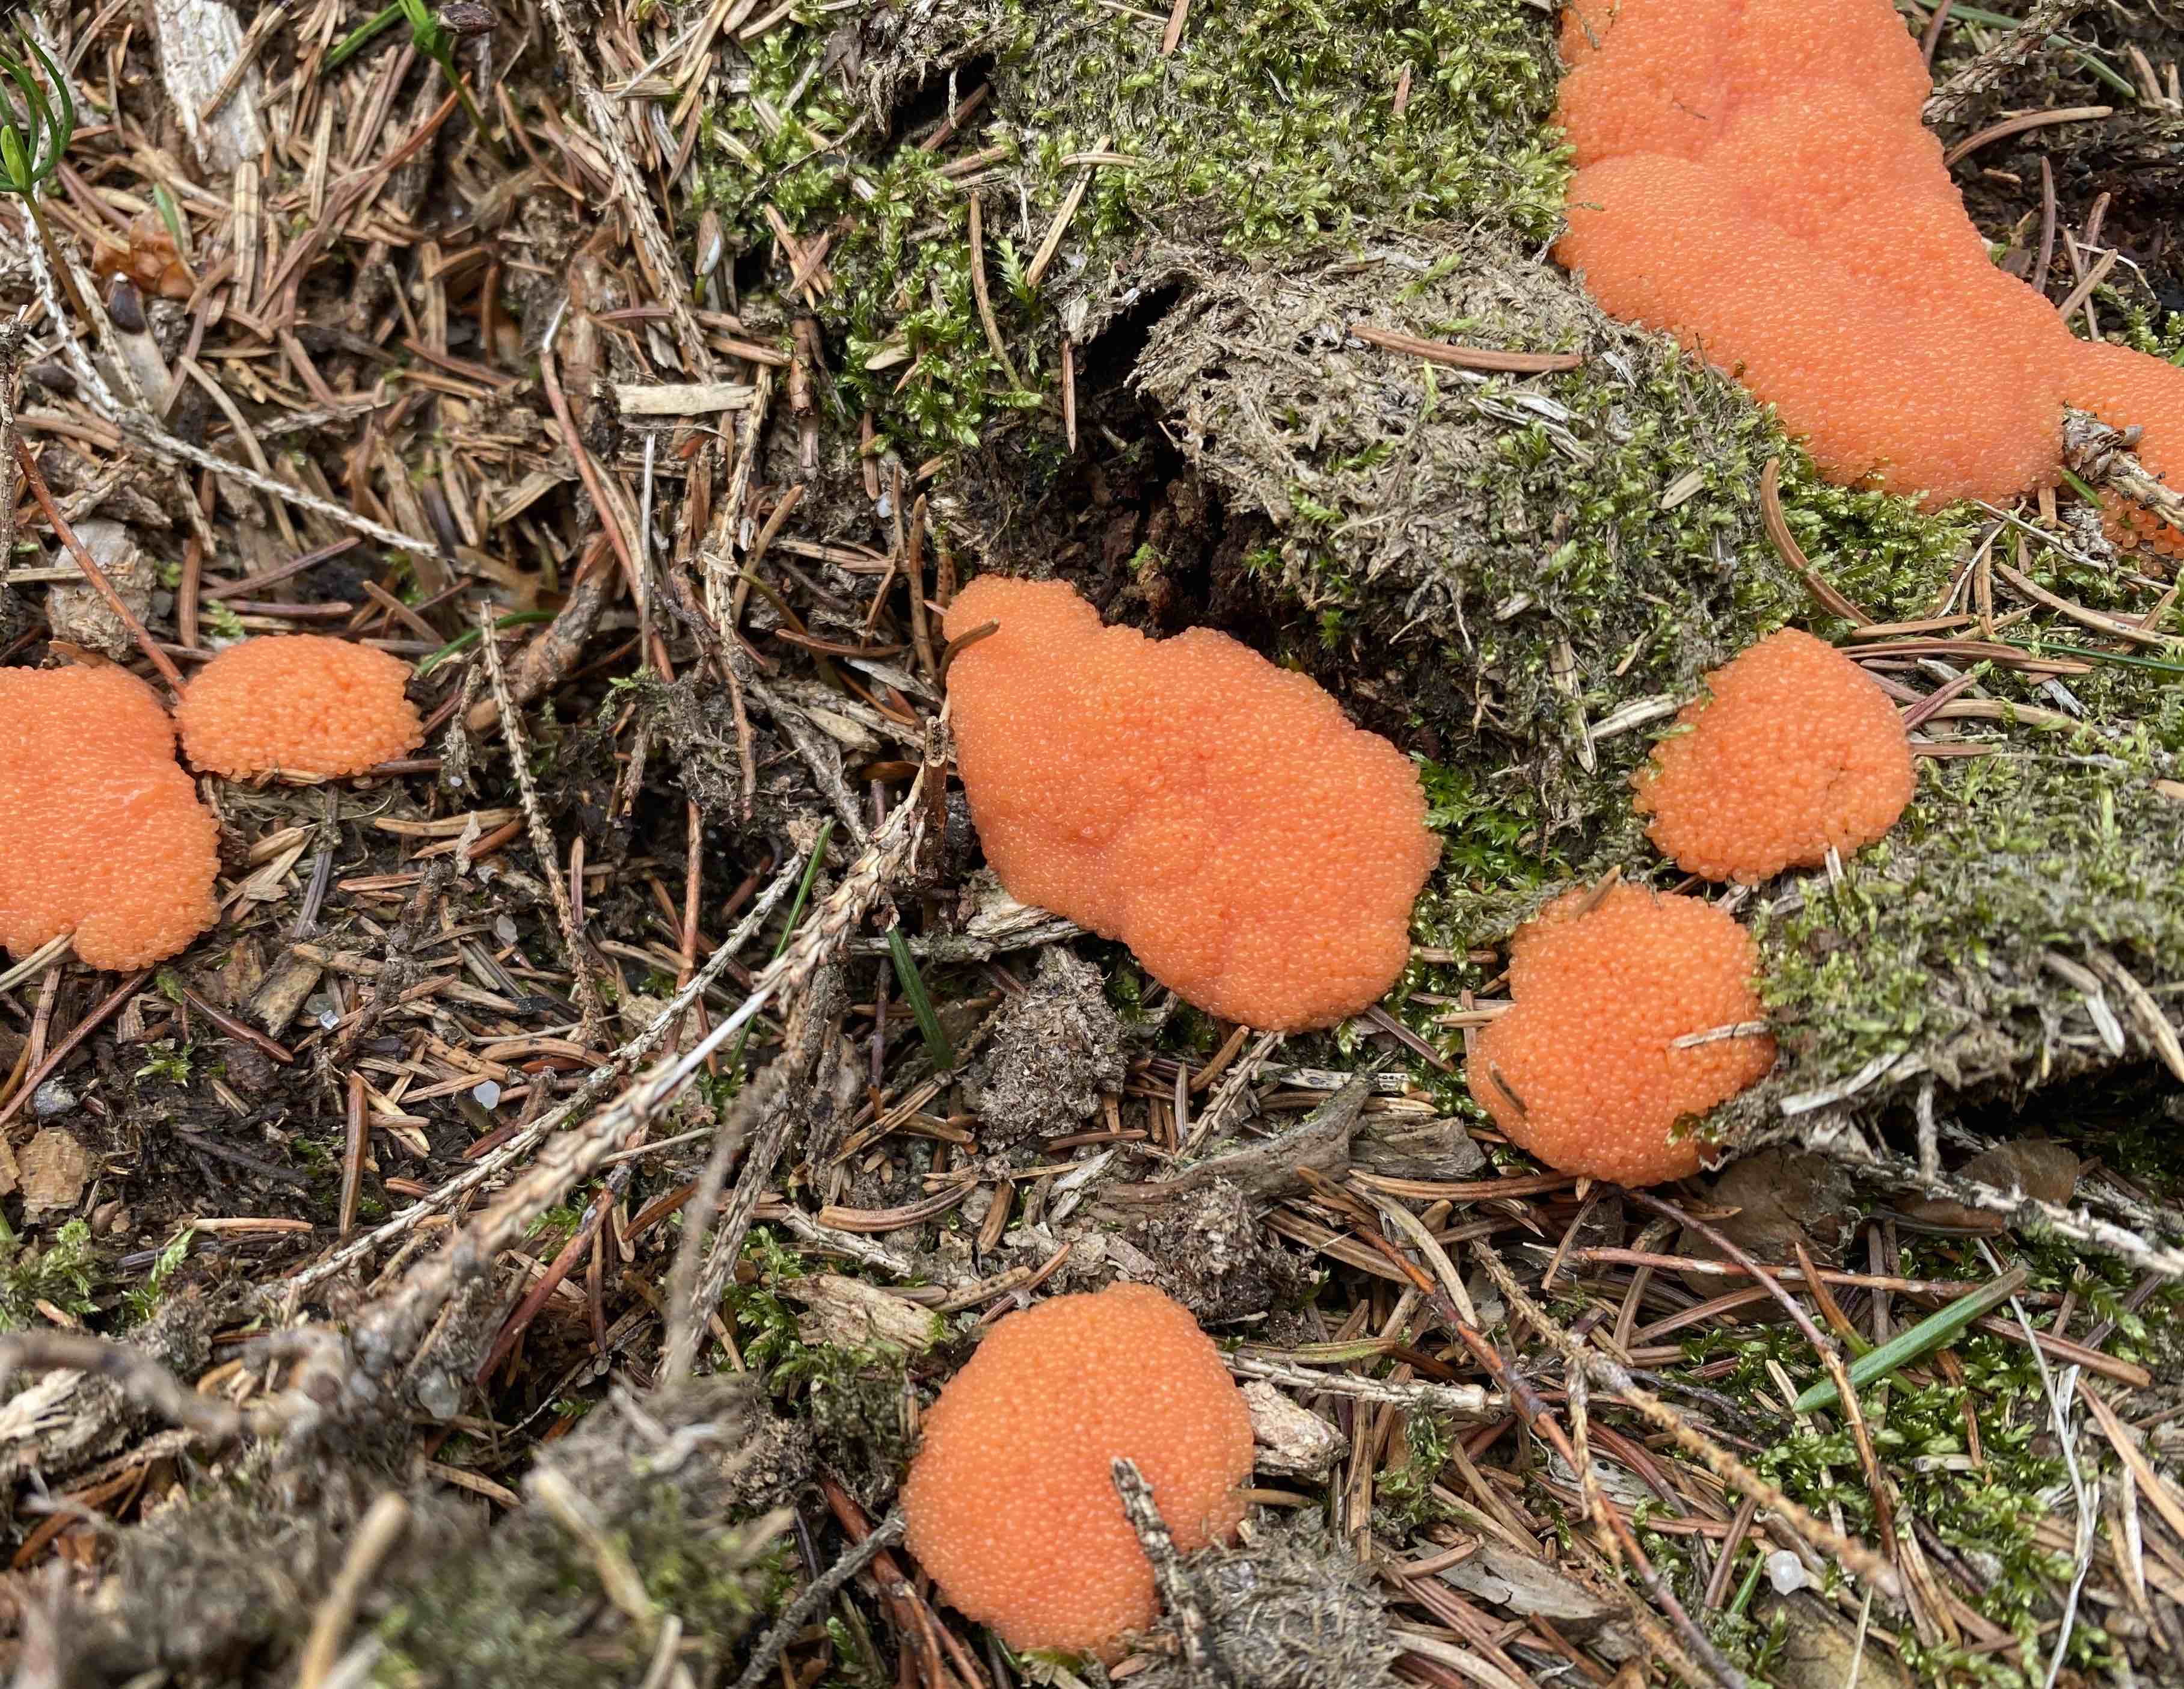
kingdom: Protozoa
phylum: Mycetozoa
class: Myxomycetes
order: Cribrariales
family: Tubiferaceae
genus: Tubifera
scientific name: Tubifera ferruginosa
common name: kanel-støvrør
